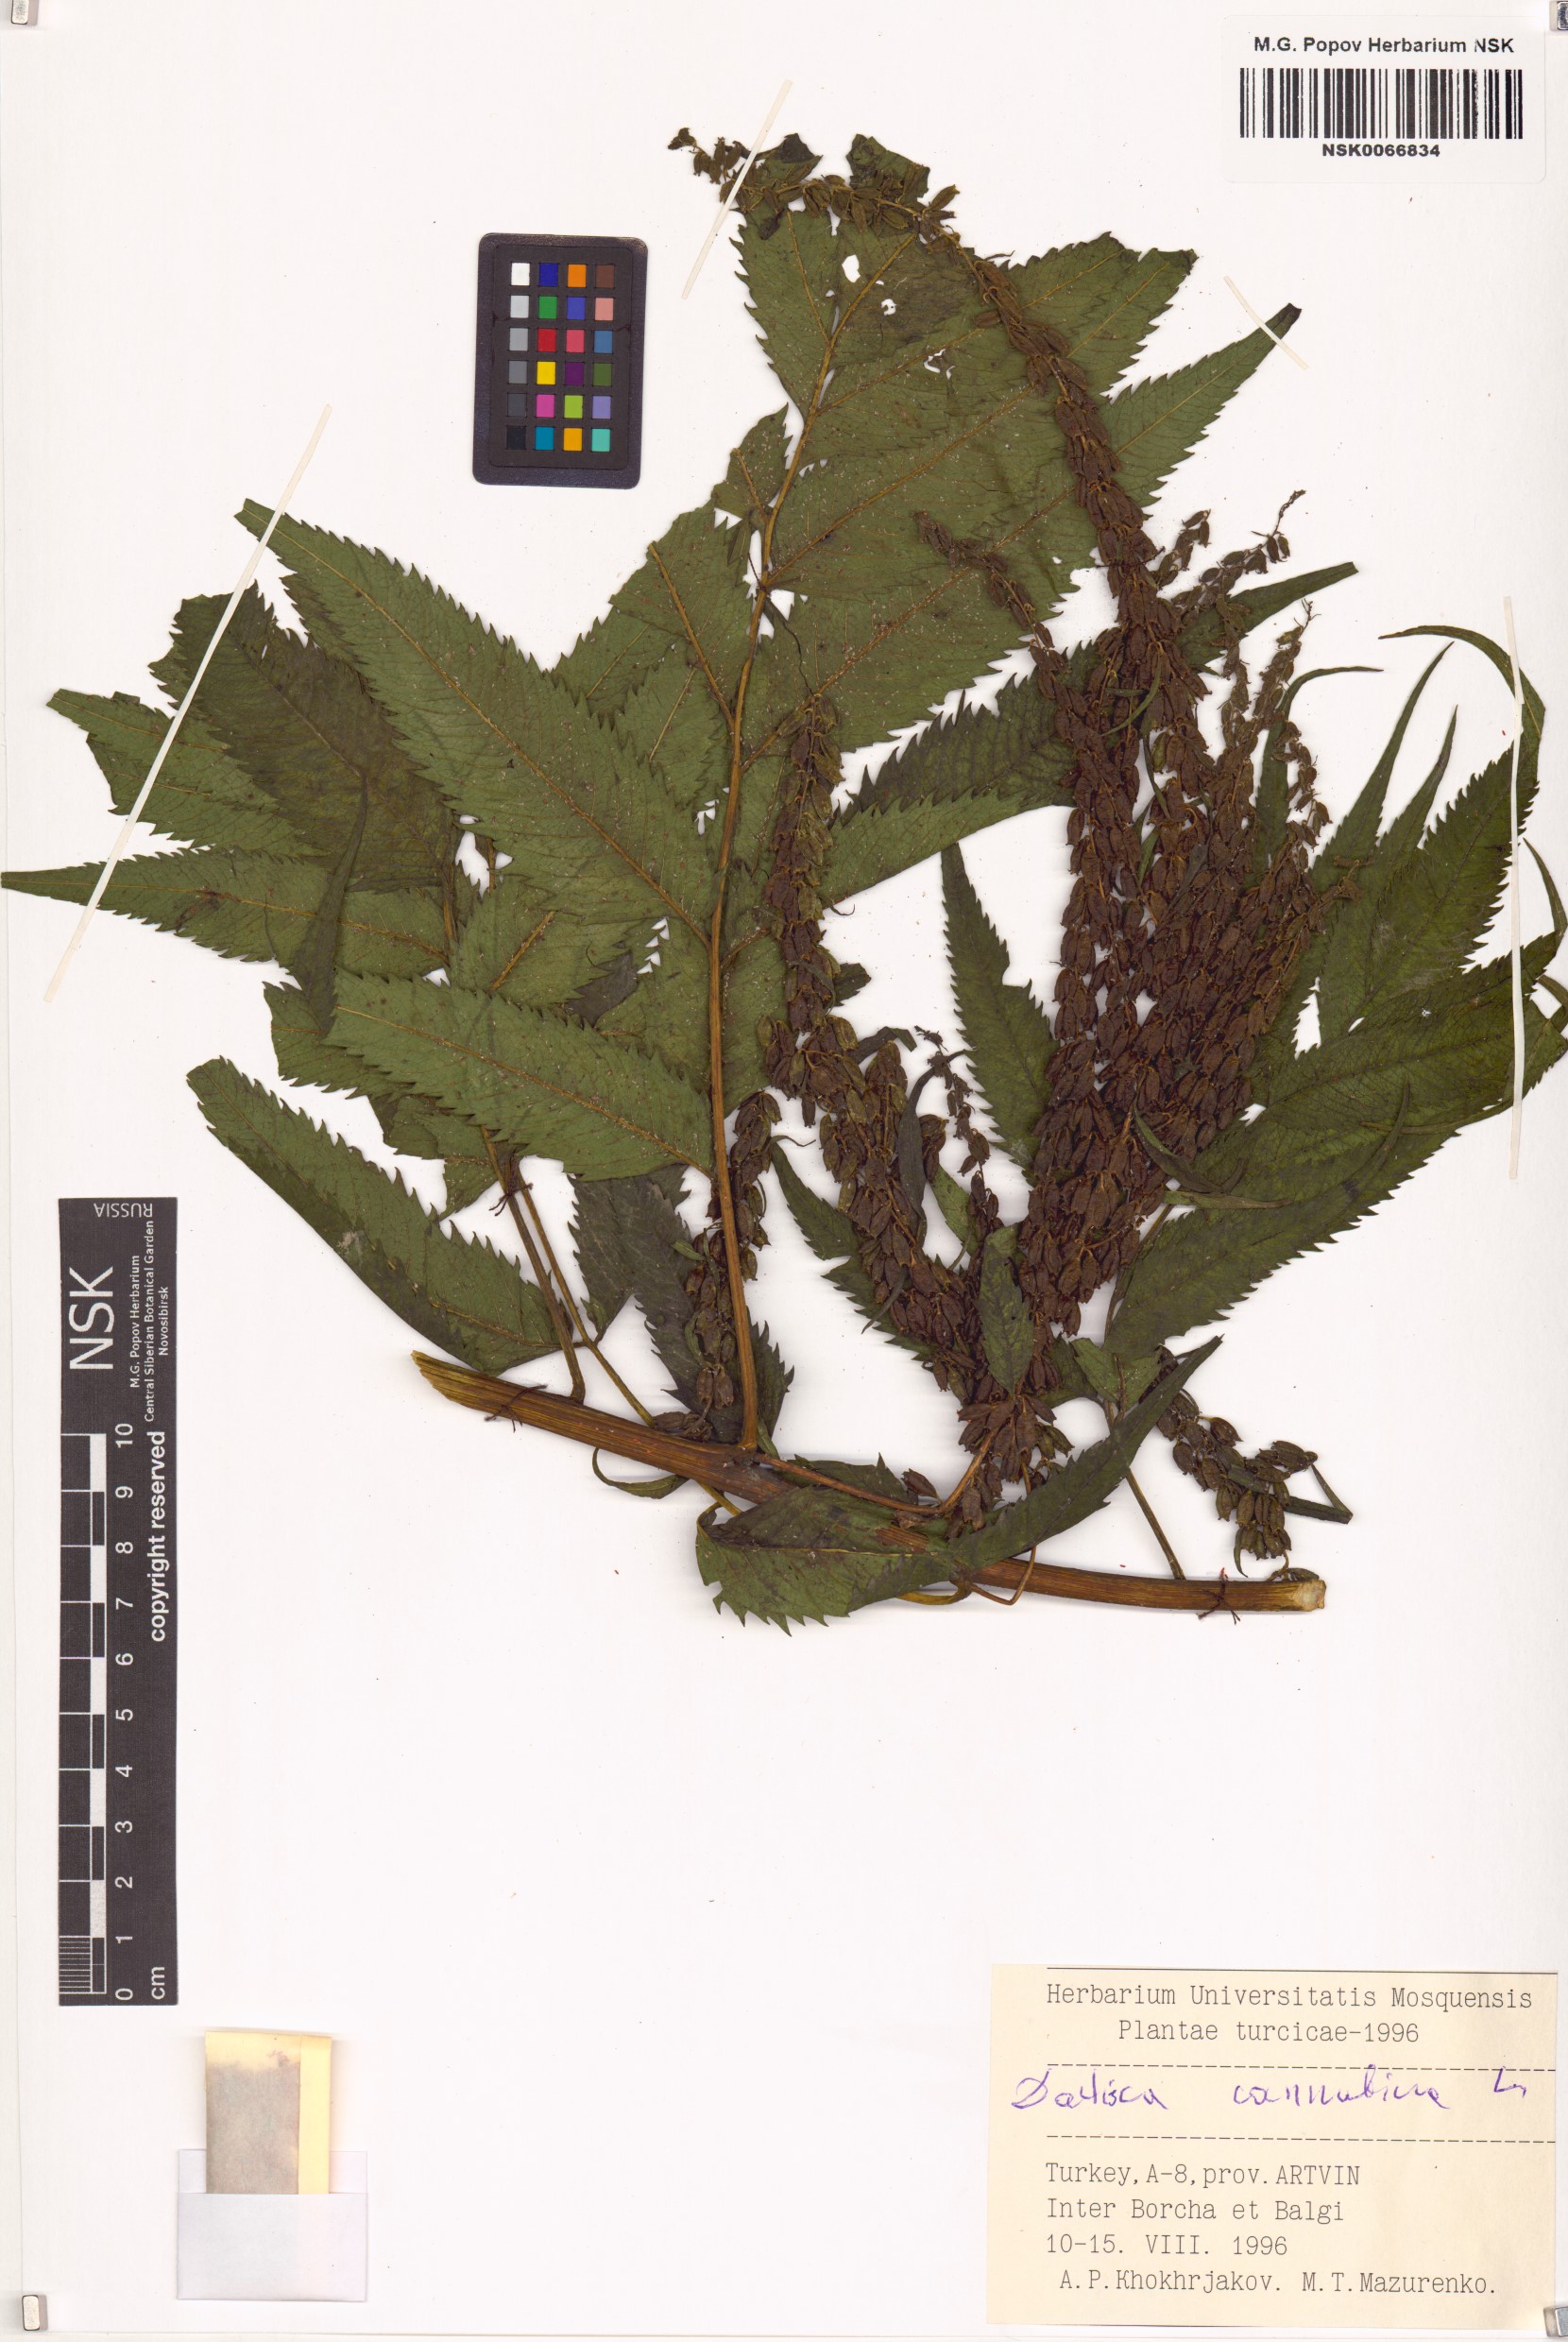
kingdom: Plantae
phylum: Tracheophyta
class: Magnoliopsida
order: Cucurbitales
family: Datiscaceae
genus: Datisca
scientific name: Datisca cannabina
